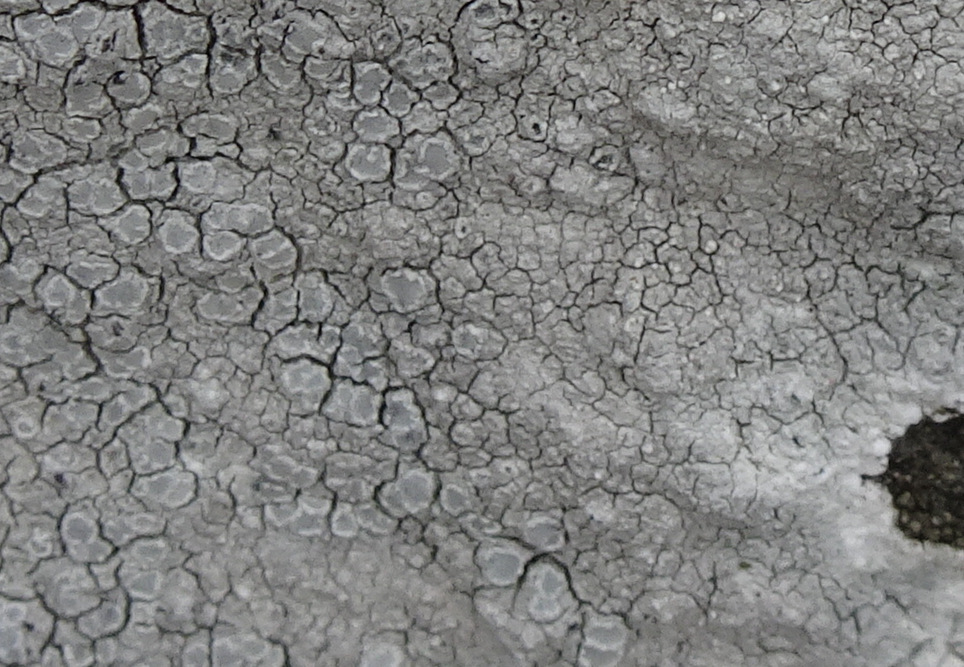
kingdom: Fungi
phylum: Ascomycota
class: Lecanoromycetes
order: Lecanorales
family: Lecanoraceae
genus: Glaucomaria
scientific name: Glaucomaria rupicola
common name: stengærde-kantskivelav
